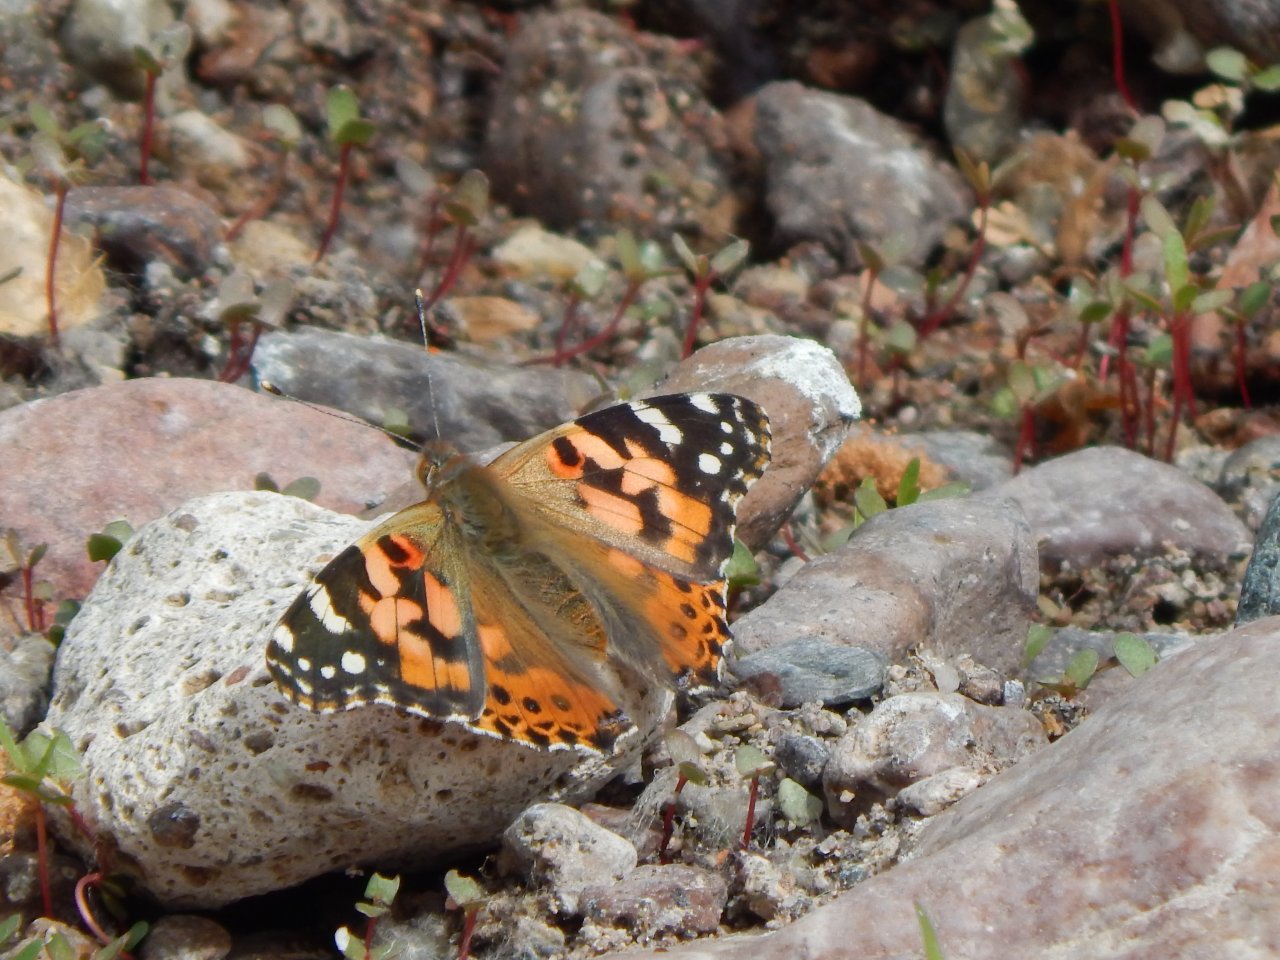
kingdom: Animalia
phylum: Arthropoda
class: Insecta
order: Lepidoptera
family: Nymphalidae
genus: Vanessa
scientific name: Vanessa cardui
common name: Painted Lady
